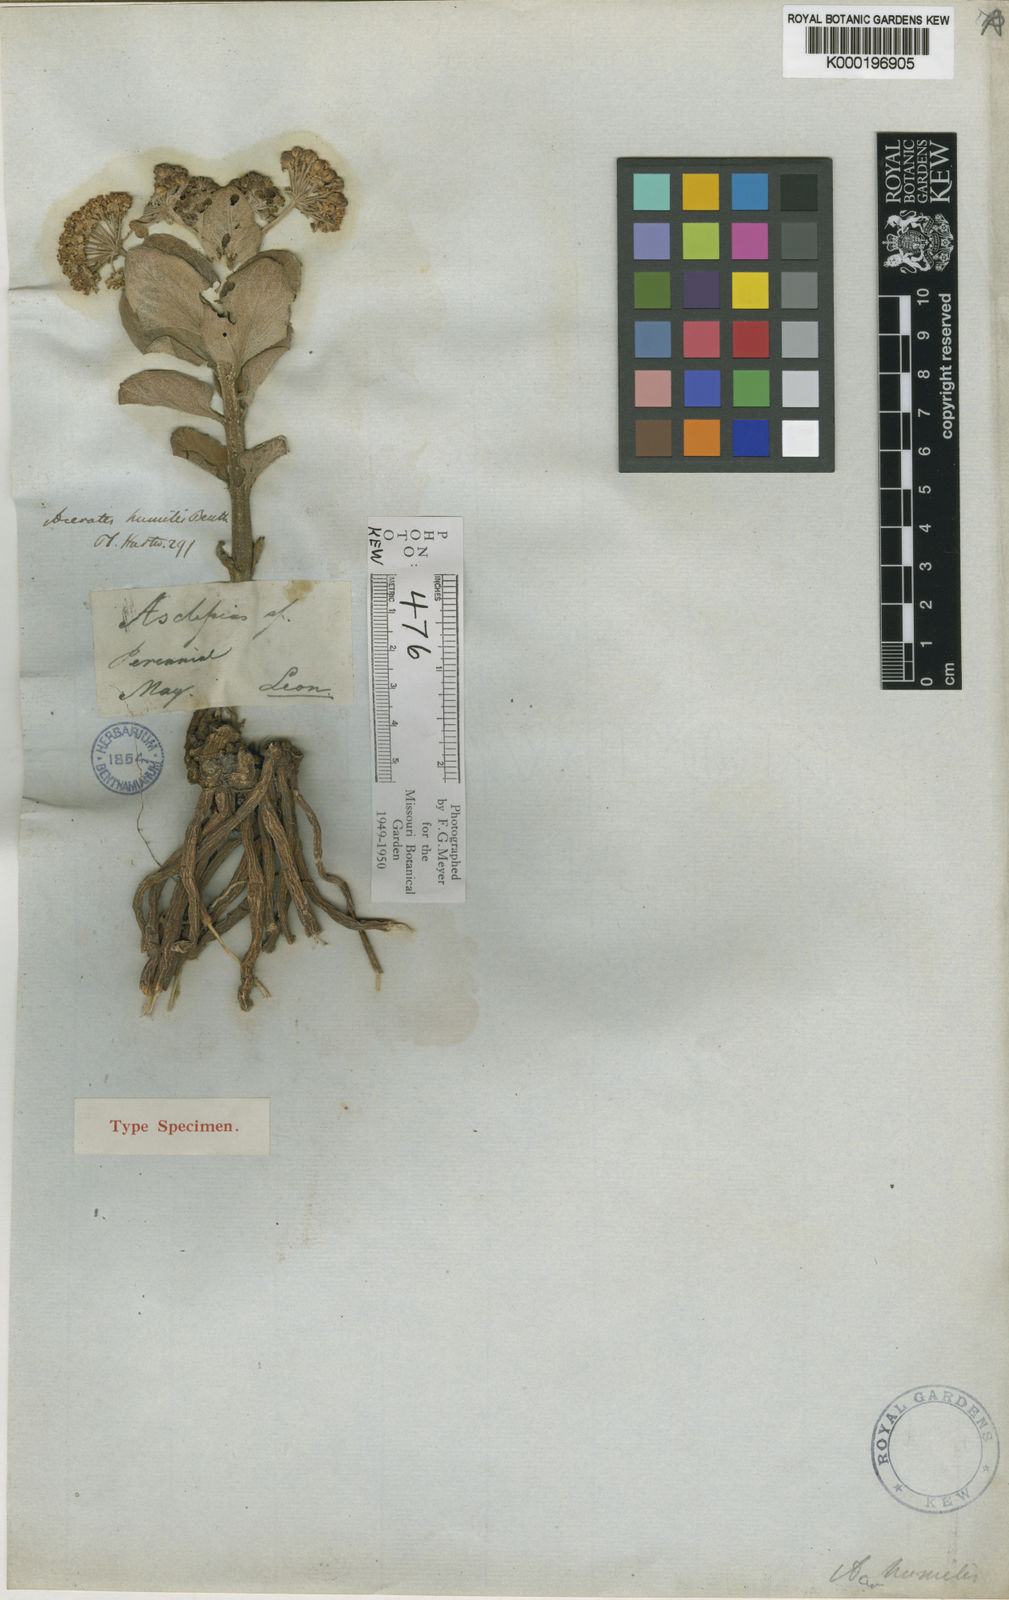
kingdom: Plantae
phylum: Tracheophyta
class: Magnoliopsida
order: Gentianales
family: Apocynaceae
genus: Asclepias
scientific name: Asclepias pringlei
